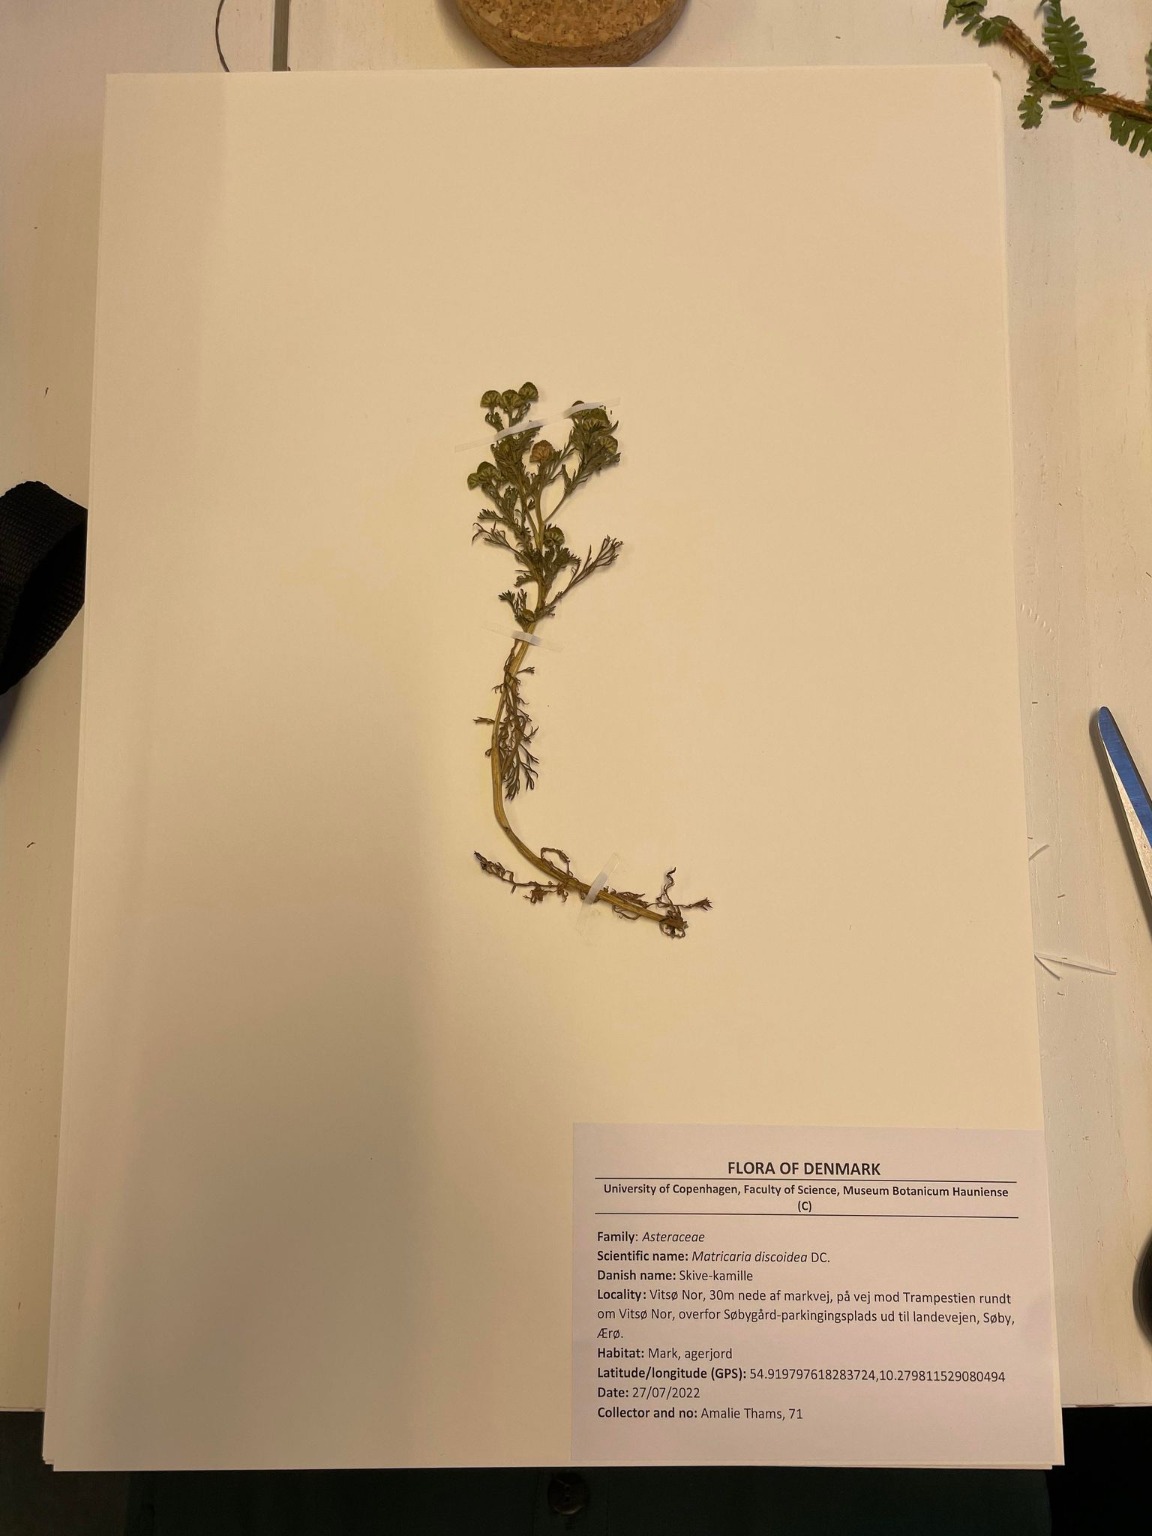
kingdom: Plantae
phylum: Tracheophyta
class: Magnoliopsida
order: Asterales
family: Asteraceae
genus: Matricaria
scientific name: Matricaria discoidea
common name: Skive-kamille
